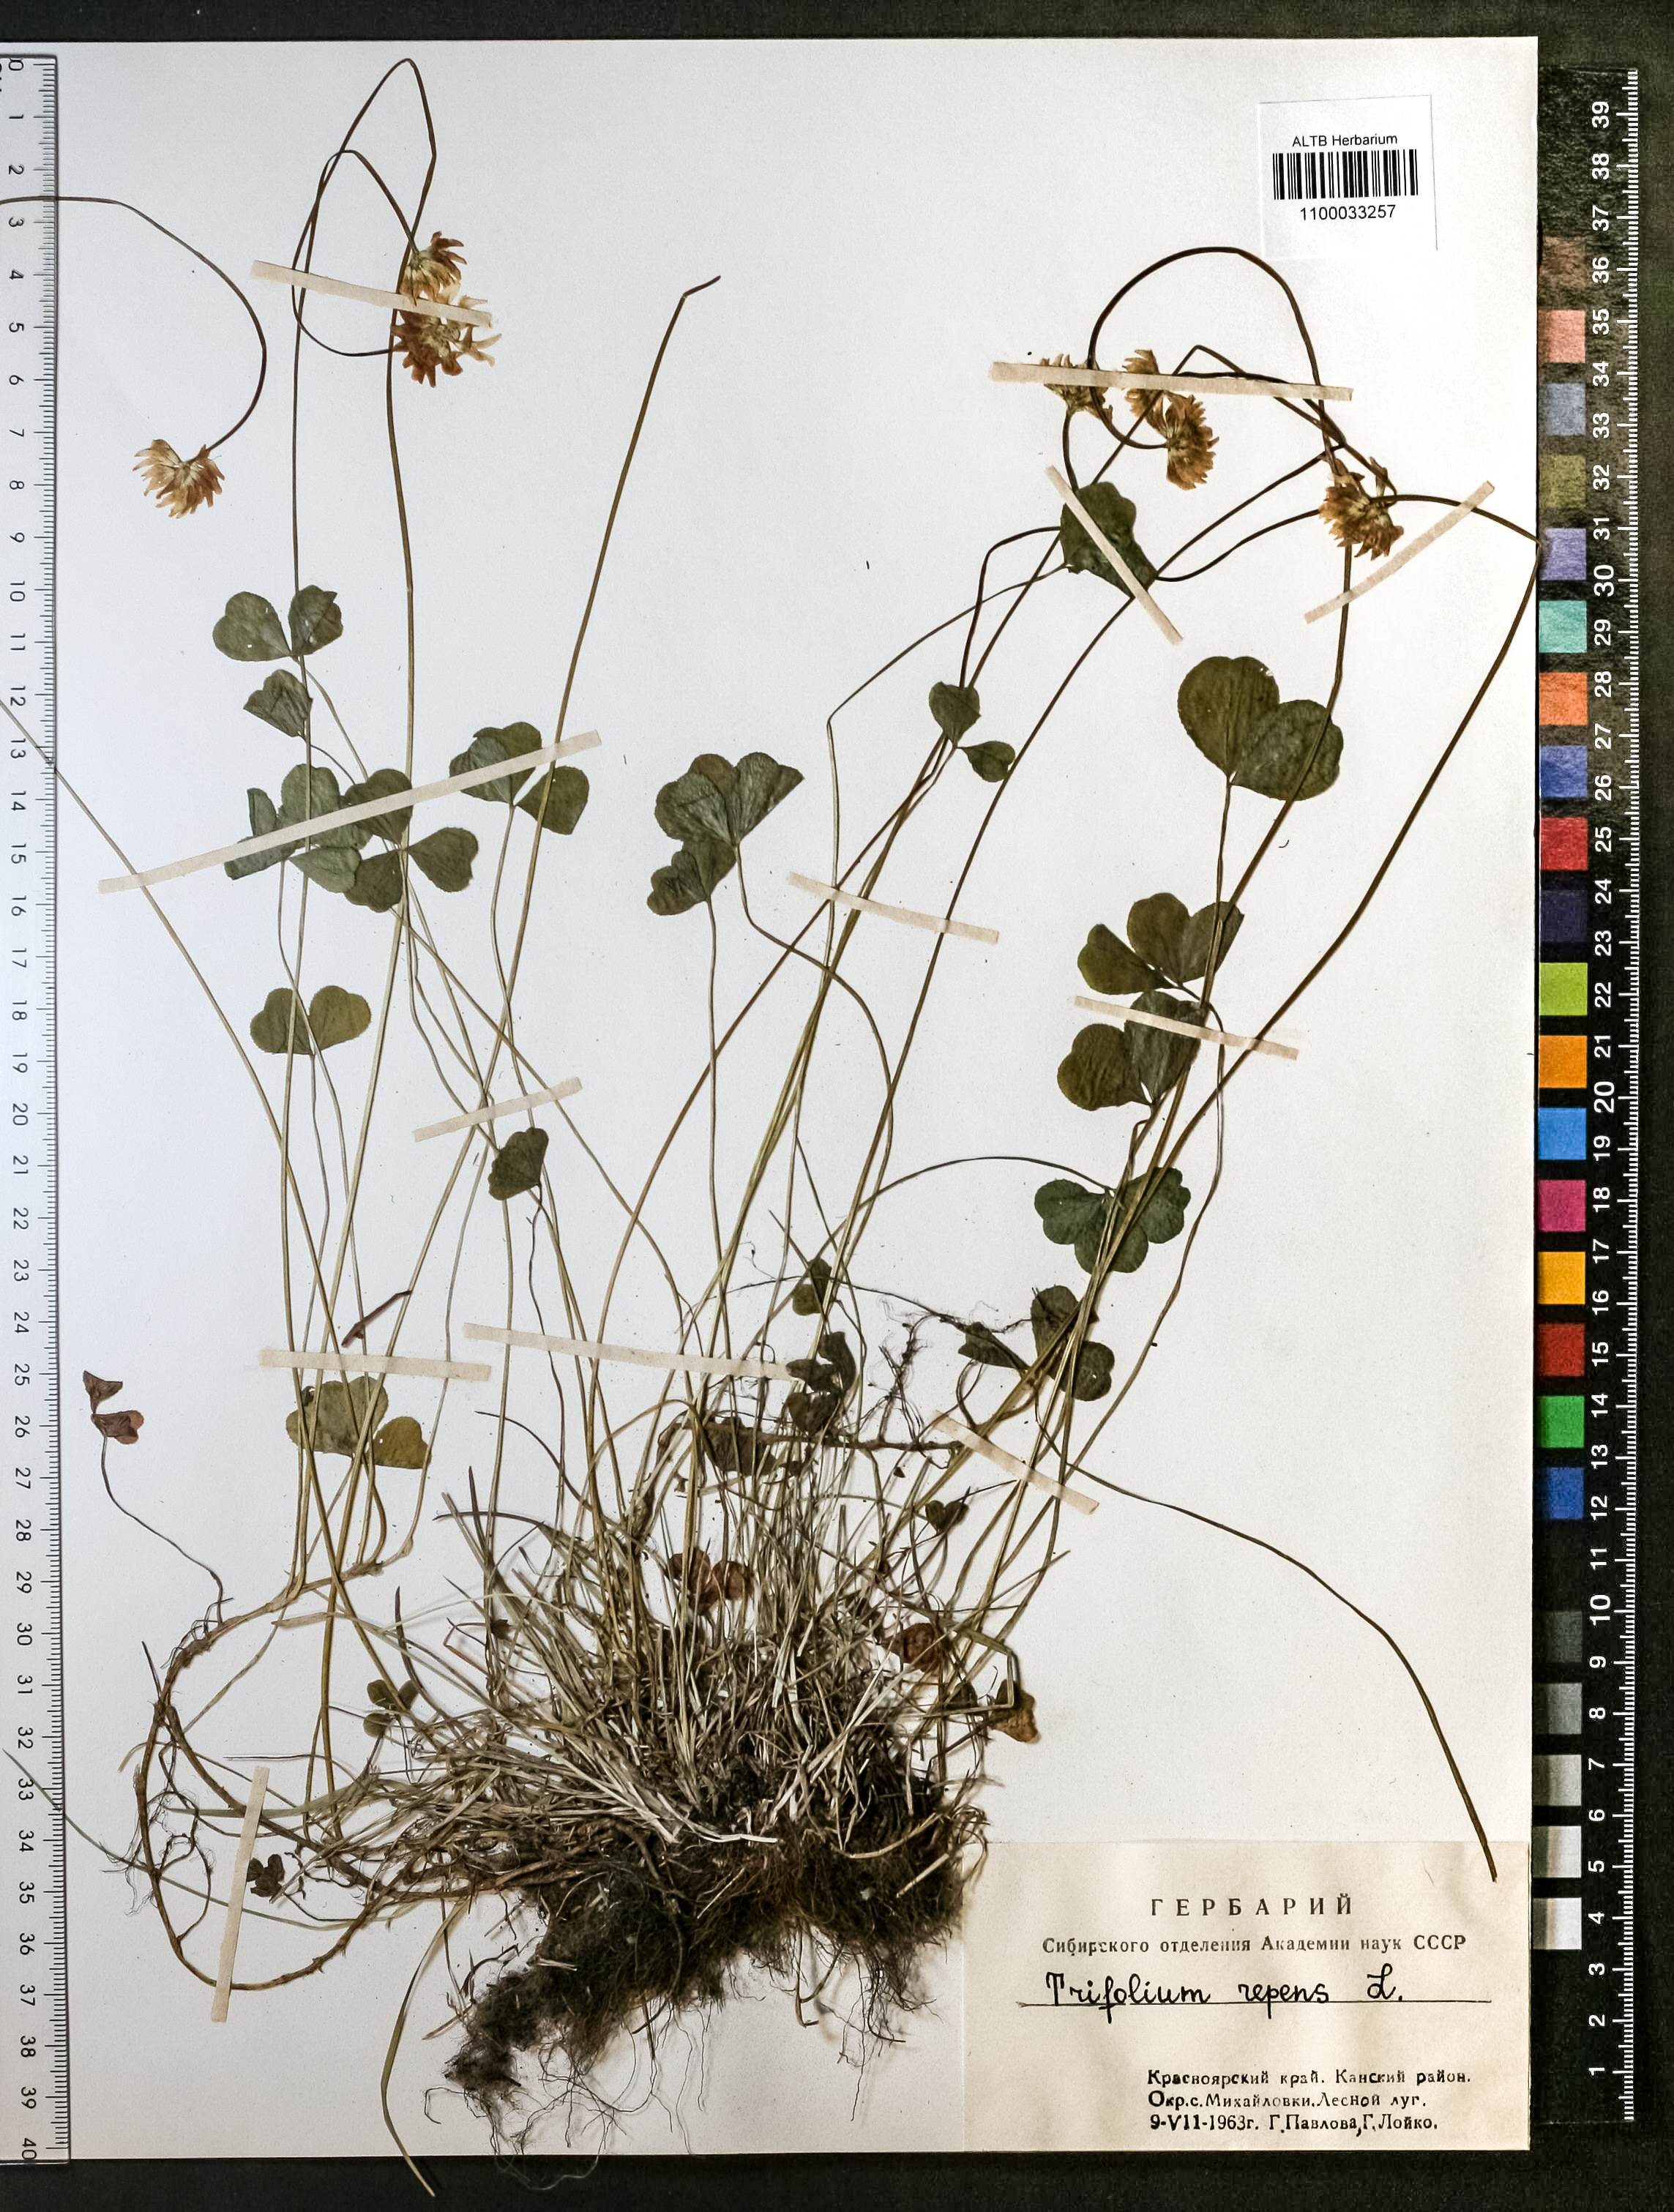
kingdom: Plantae
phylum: Tracheophyta
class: Magnoliopsida
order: Fabales
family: Fabaceae
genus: Trifolium
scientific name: Trifolium repens
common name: White clover
